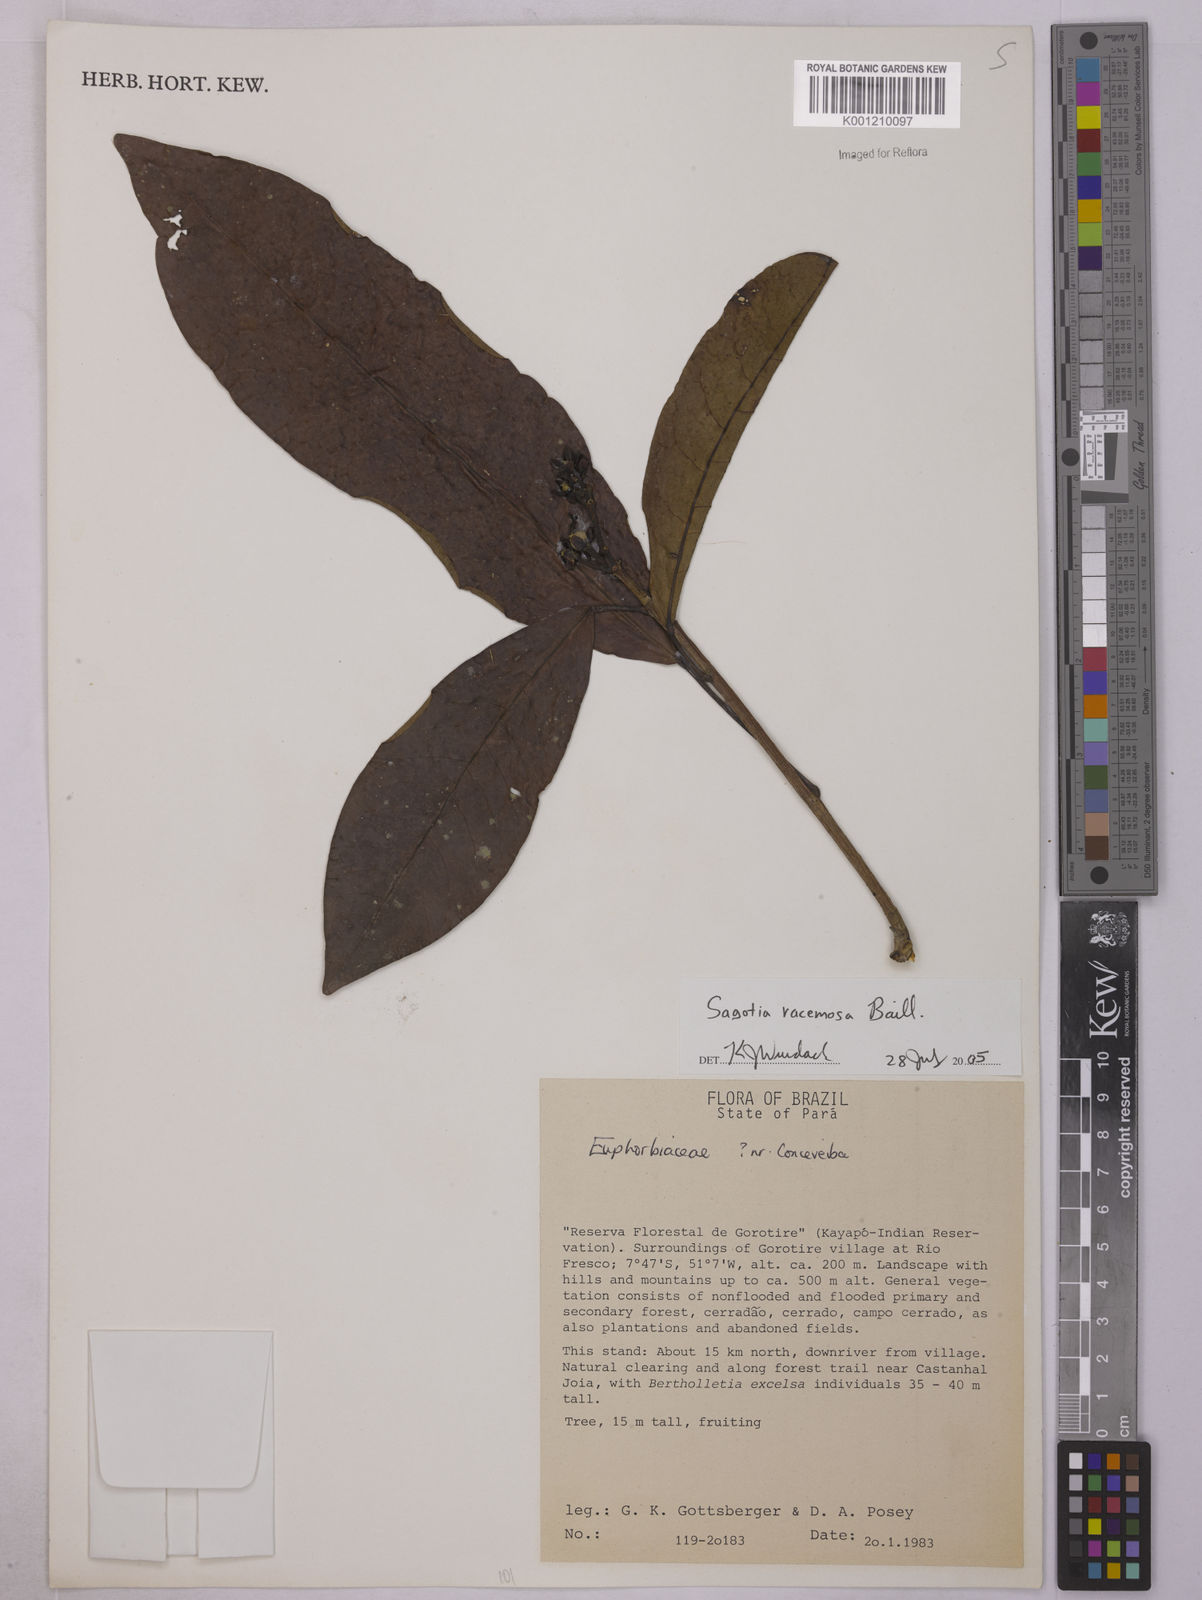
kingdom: Plantae
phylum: Tracheophyta
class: Magnoliopsida
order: Malpighiales
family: Euphorbiaceae
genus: Sagotia
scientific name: Sagotia racemosa
